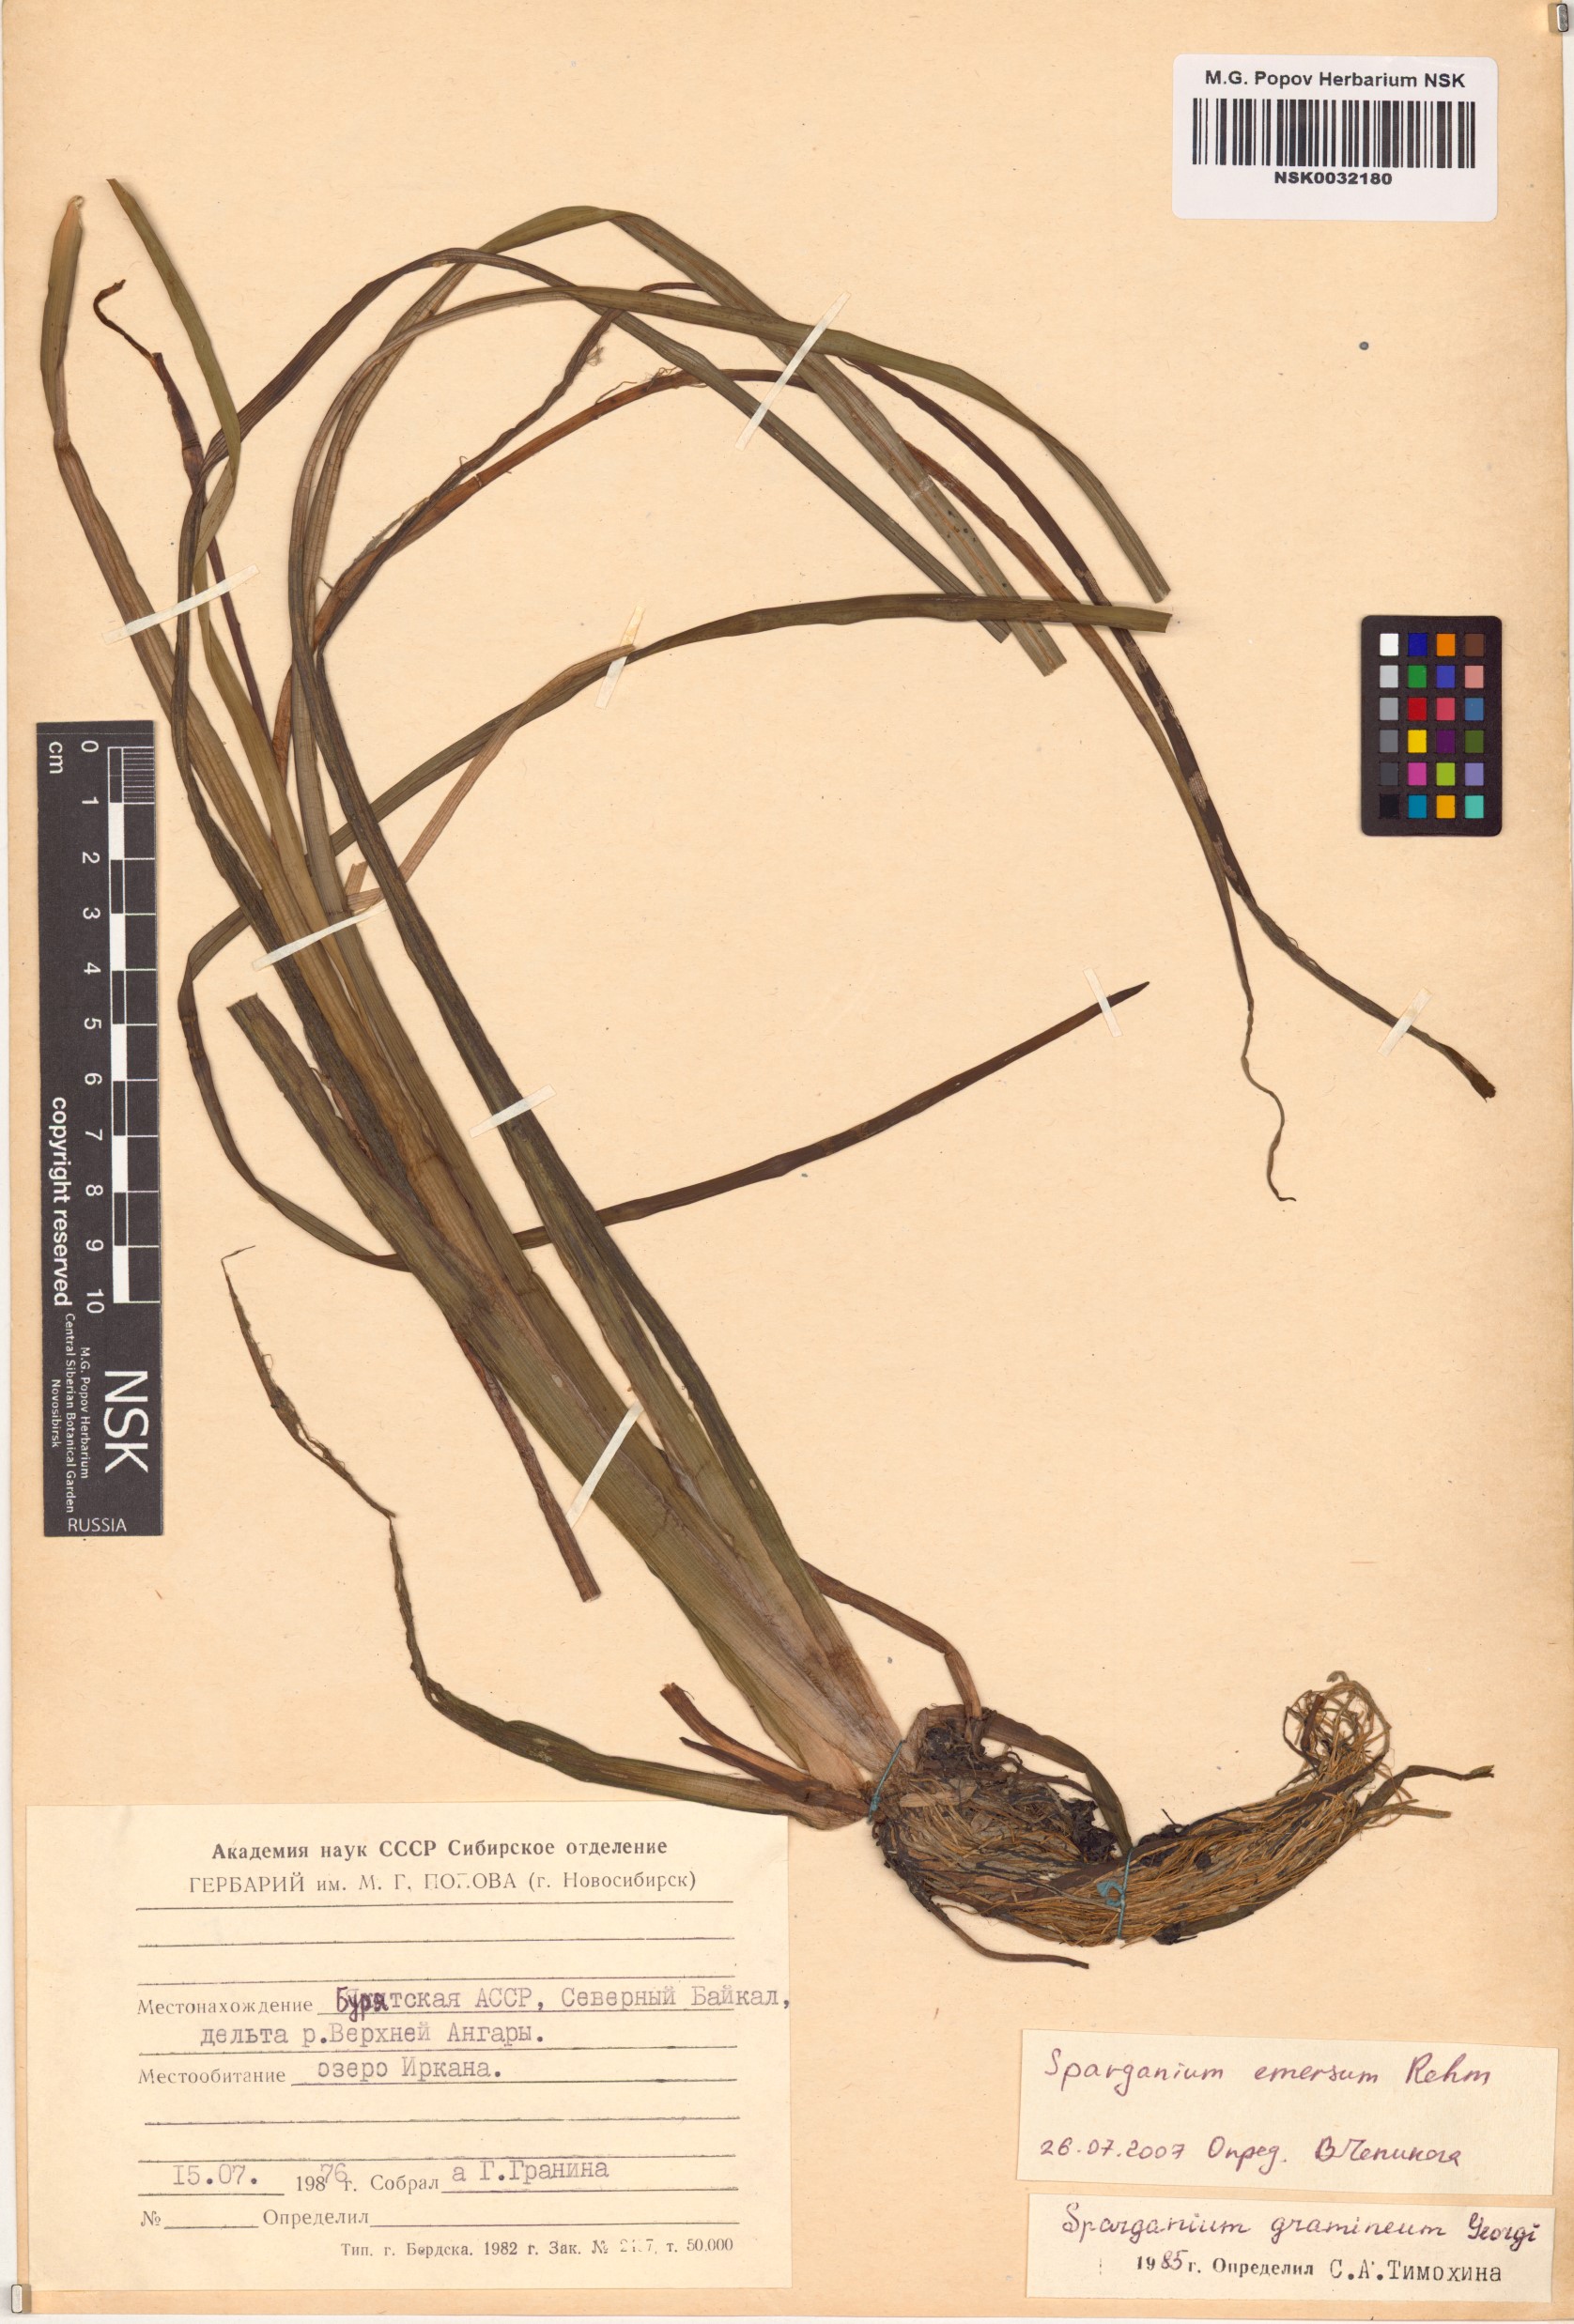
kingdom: Plantae
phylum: Tracheophyta
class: Liliopsida
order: Poales
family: Typhaceae
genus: Sparganium
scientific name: Sparganium emersum
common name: Unbranched bur-reed
